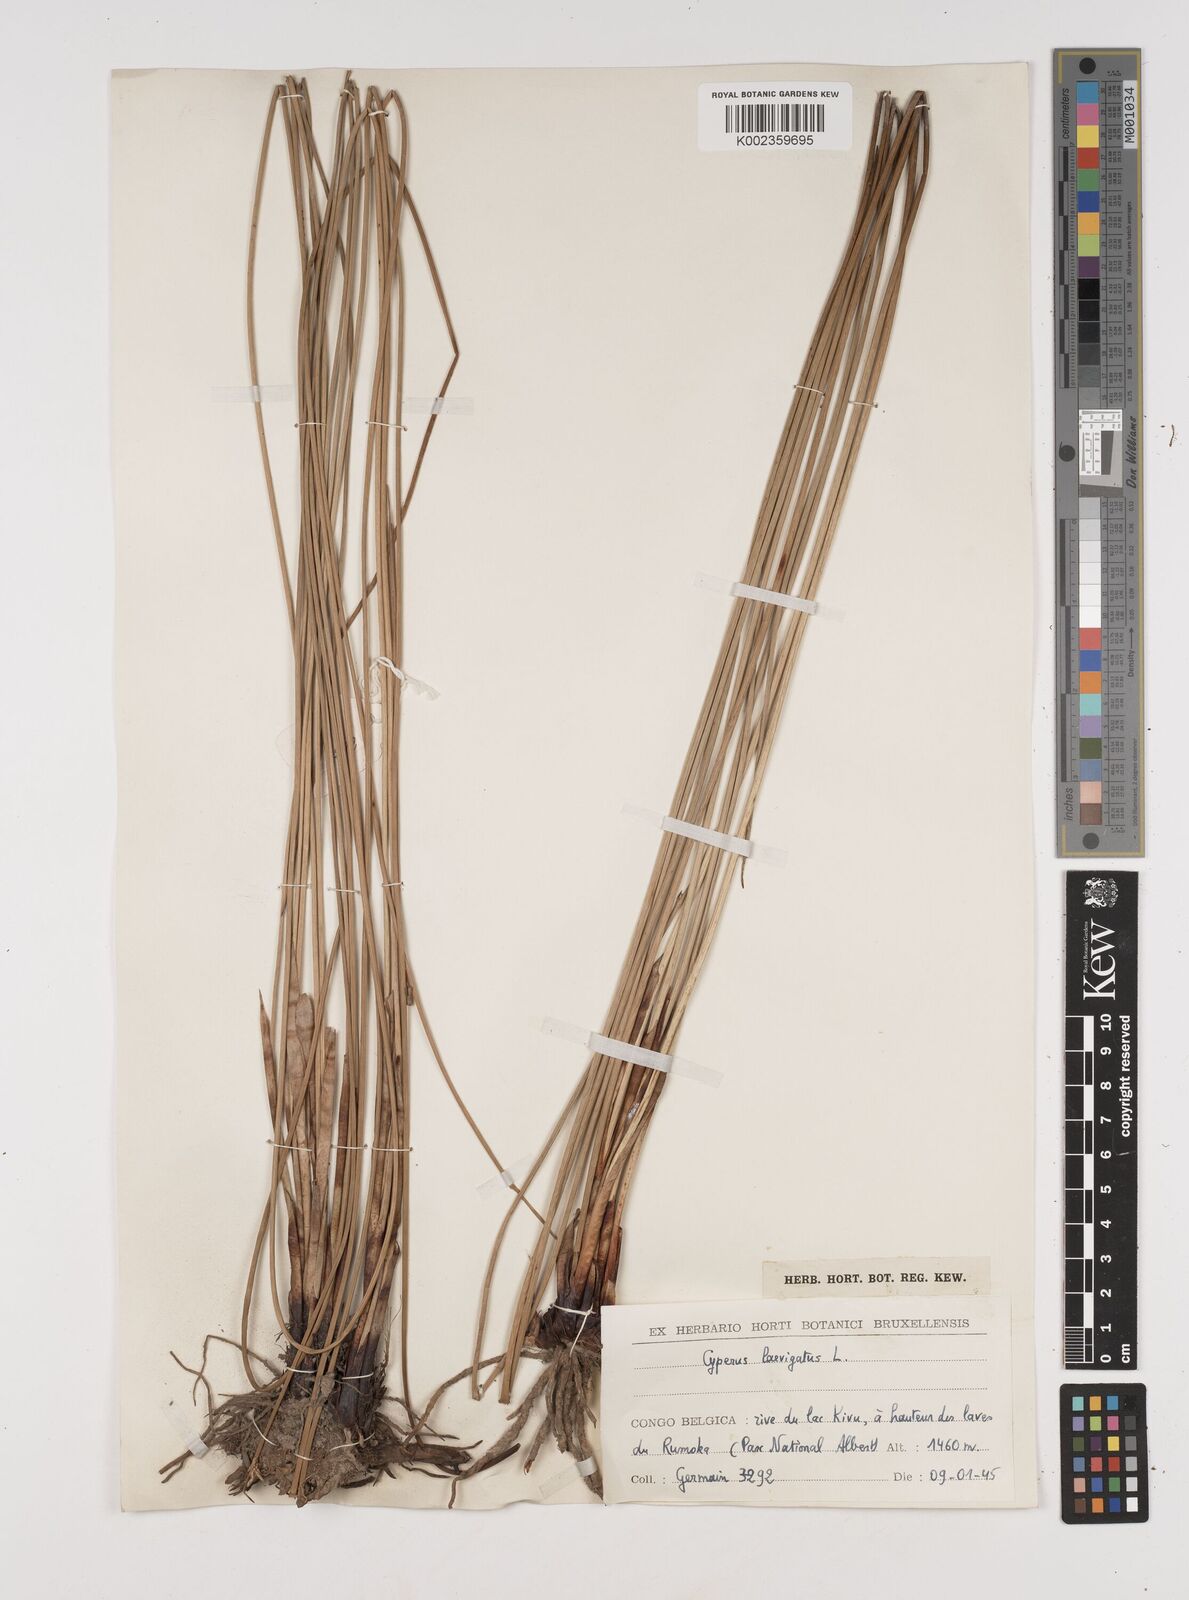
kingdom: Plantae
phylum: Tracheophyta
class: Liliopsida
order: Poales
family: Cyperaceae
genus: Cyperus
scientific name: Cyperus laevigatus
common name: Smooth flat sedge
